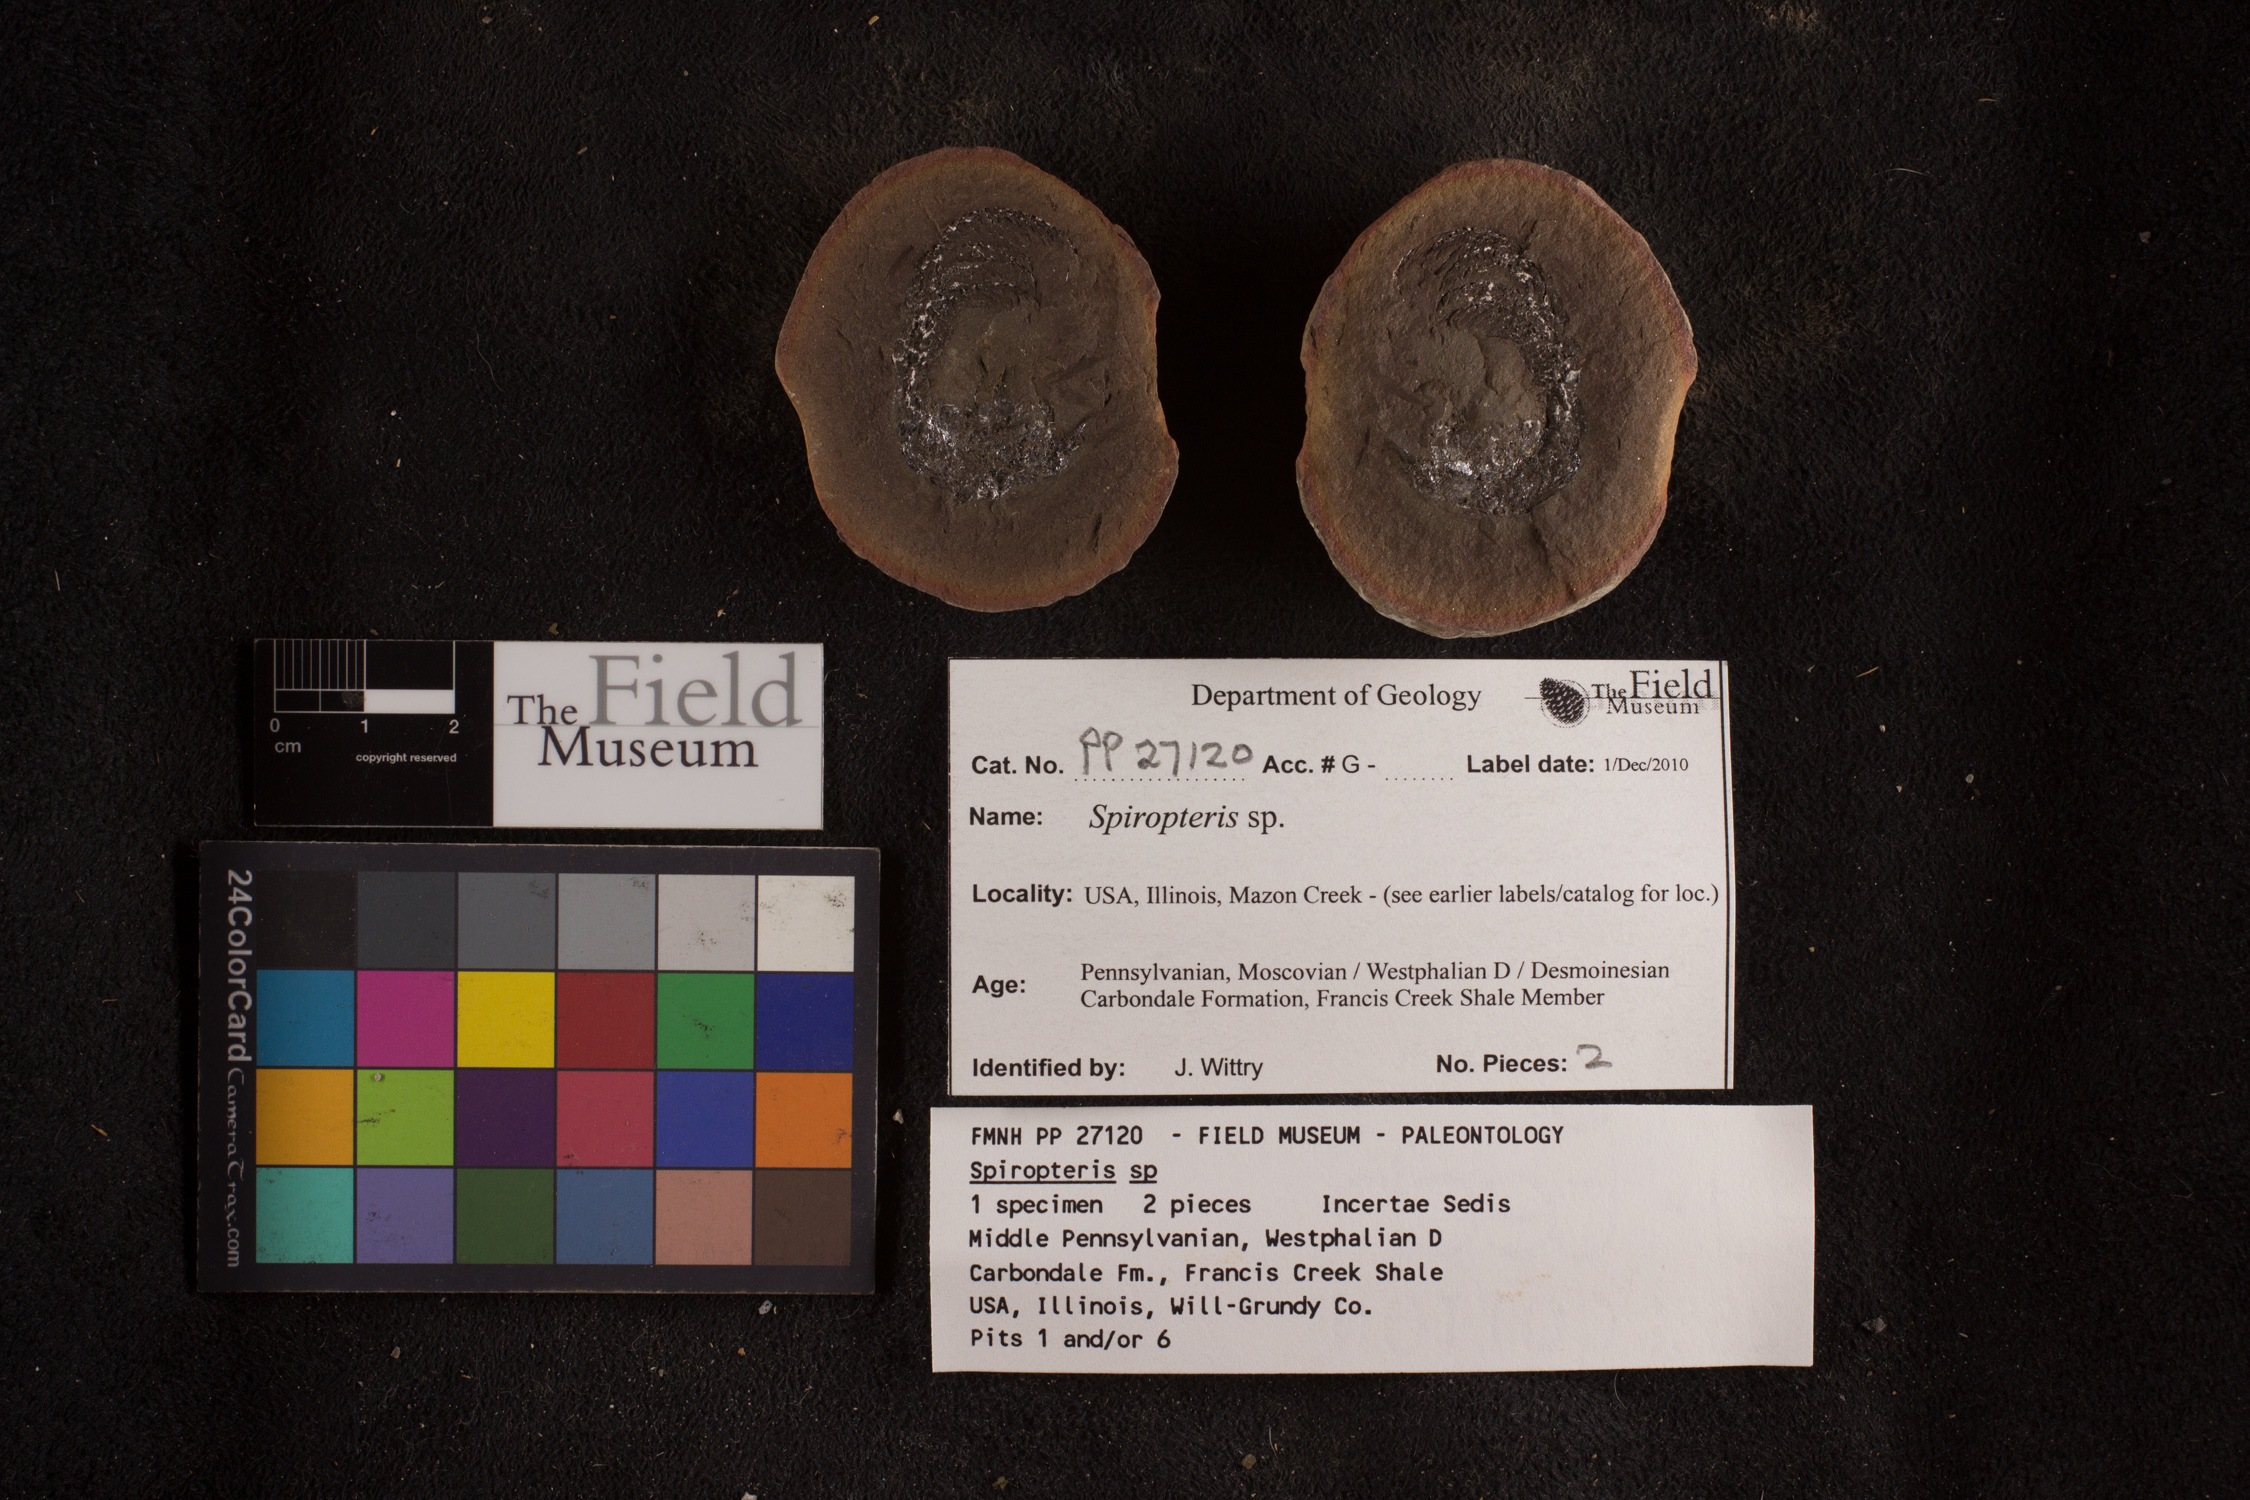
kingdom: Plantae
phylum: Tracheophyta
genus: Spiropteris
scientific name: Spiropteris
